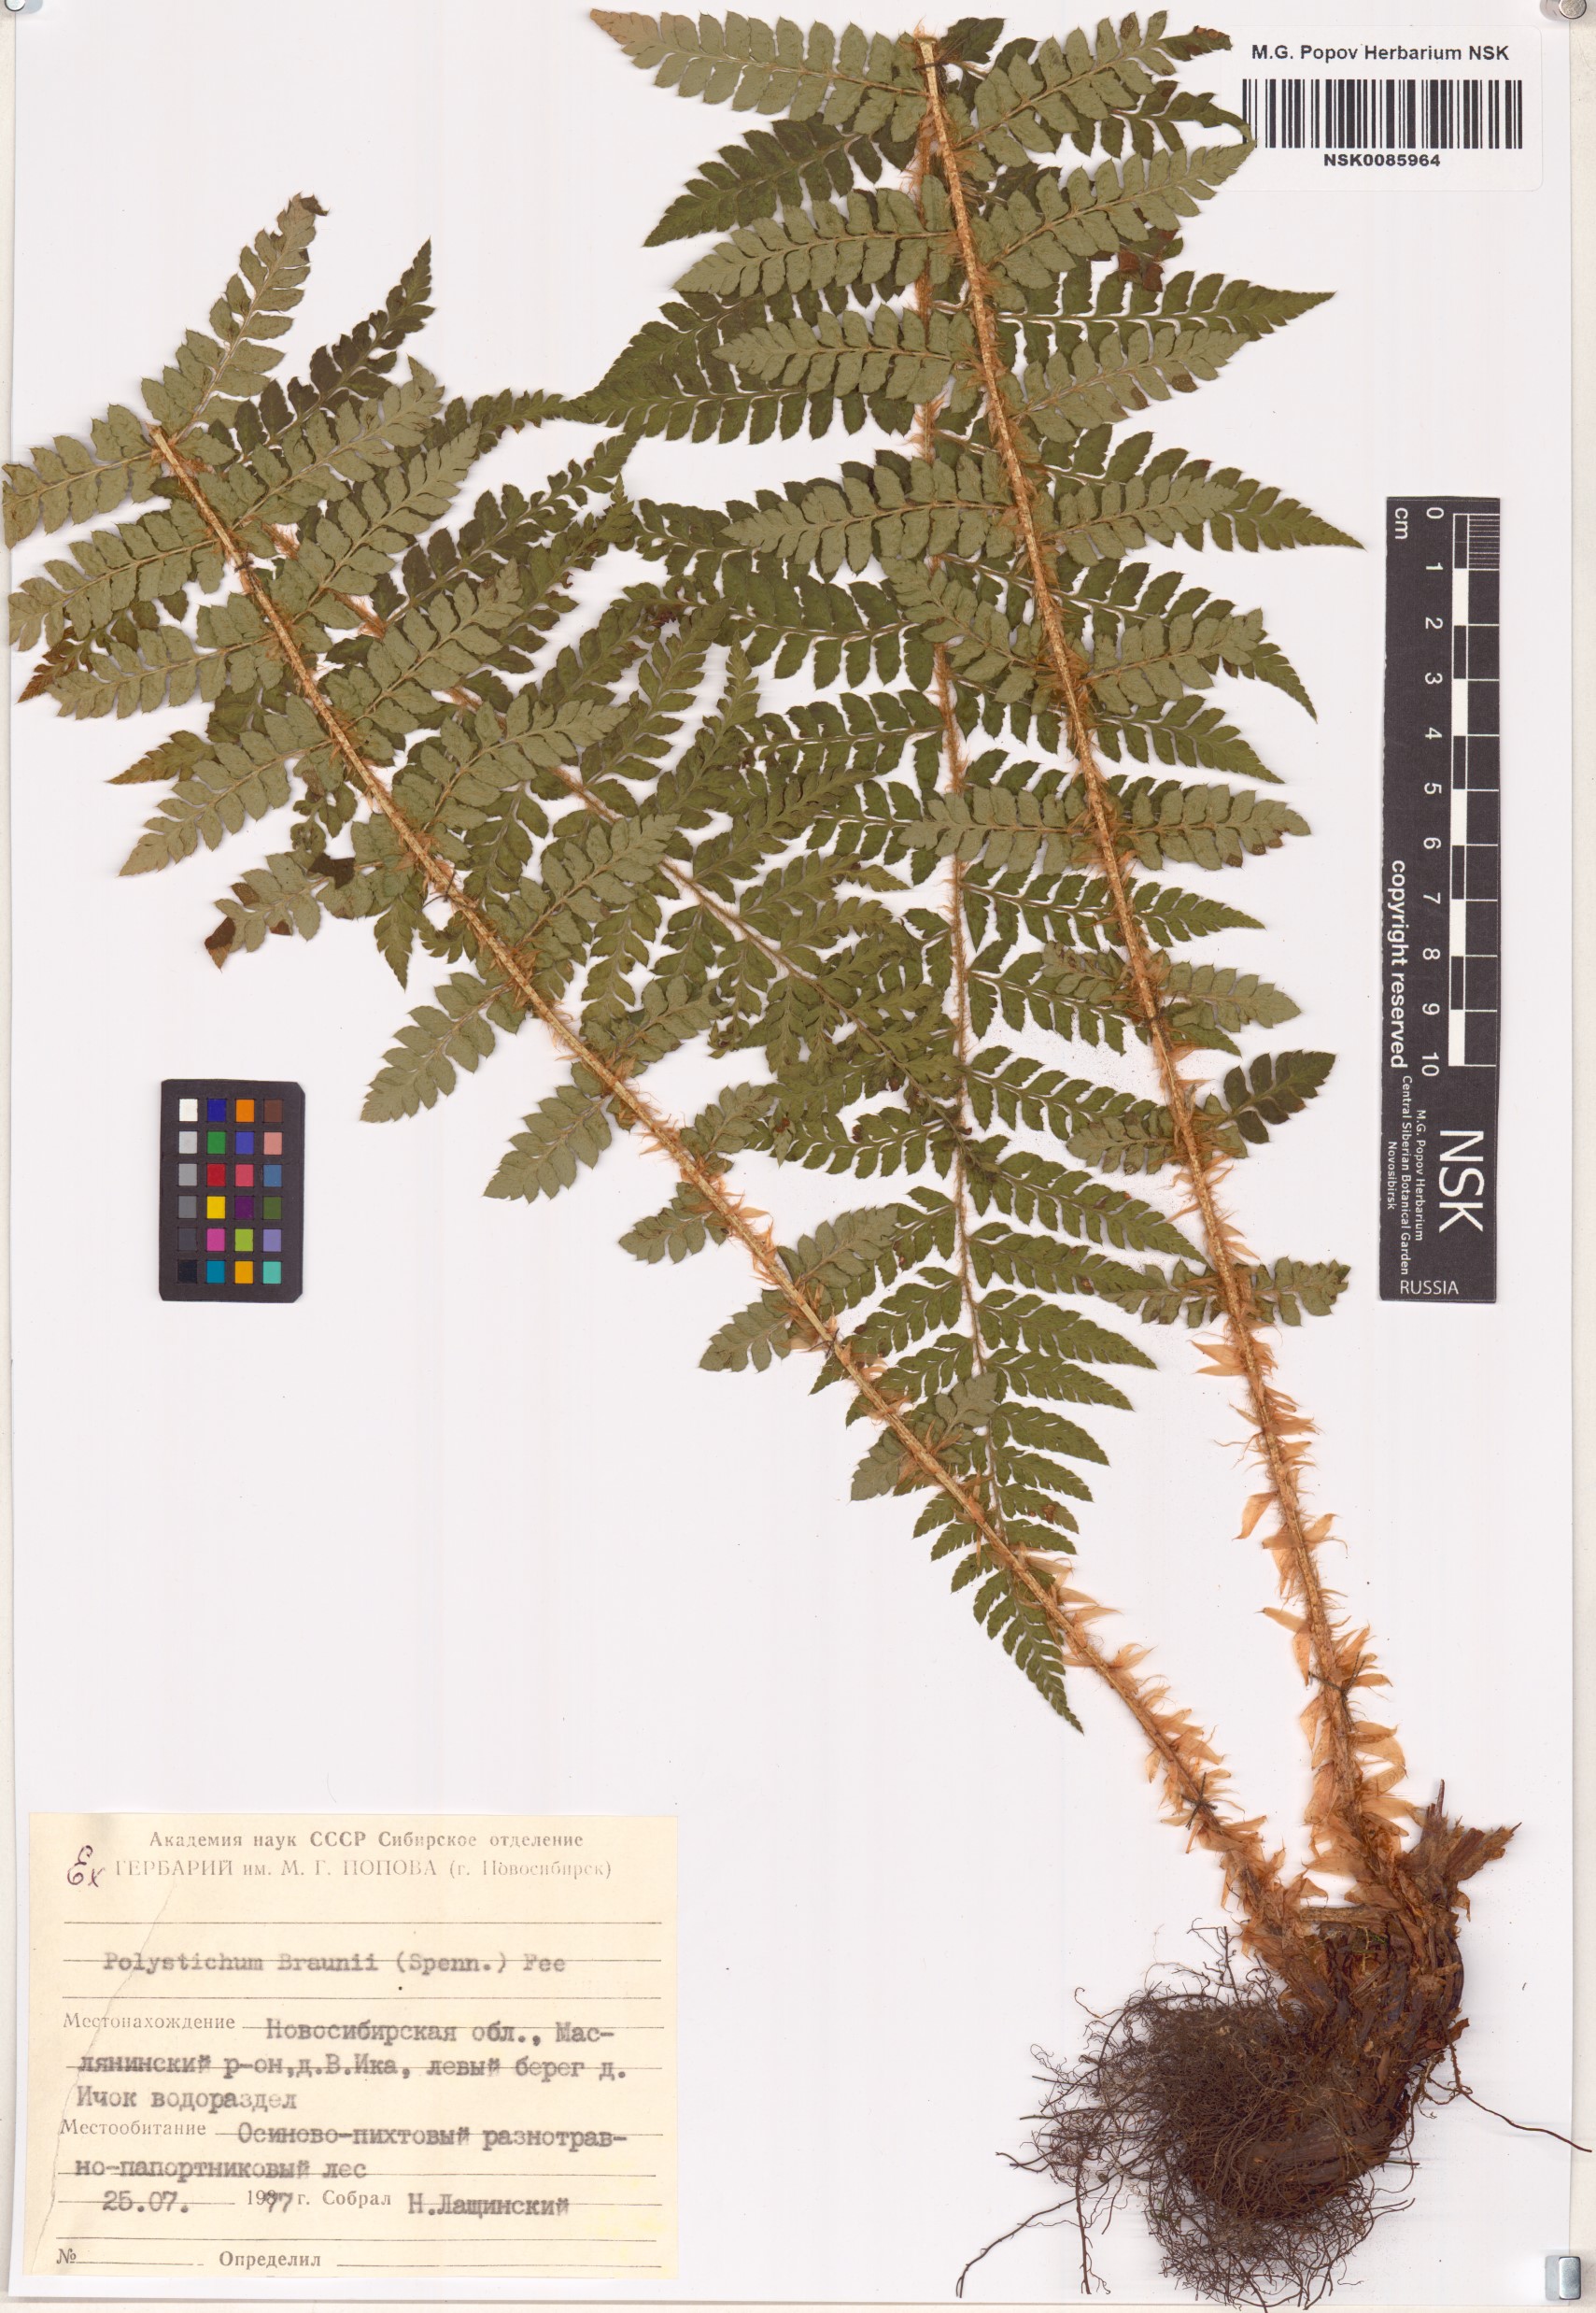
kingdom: Plantae
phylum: Tracheophyta
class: Polypodiopsida
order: Polypodiales
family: Dryopteridaceae
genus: Polystichum
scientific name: Polystichum braunii
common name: Braun's holly fern
